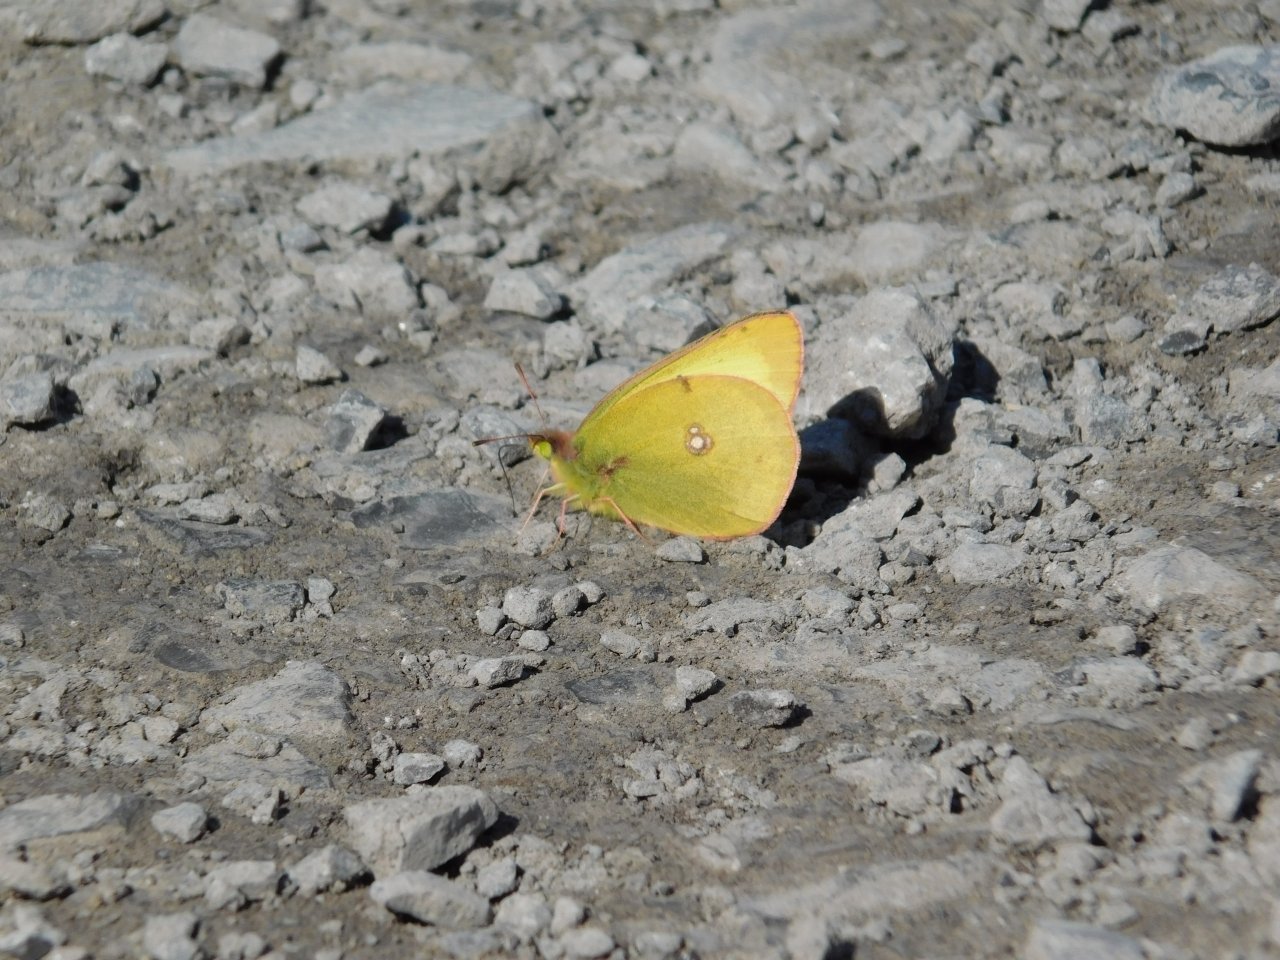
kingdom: Animalia
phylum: Arthropoda
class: Insecta
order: Lepidoptera
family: Pieridae
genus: Colias
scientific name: Colias philodice
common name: Clouded Sulphur
